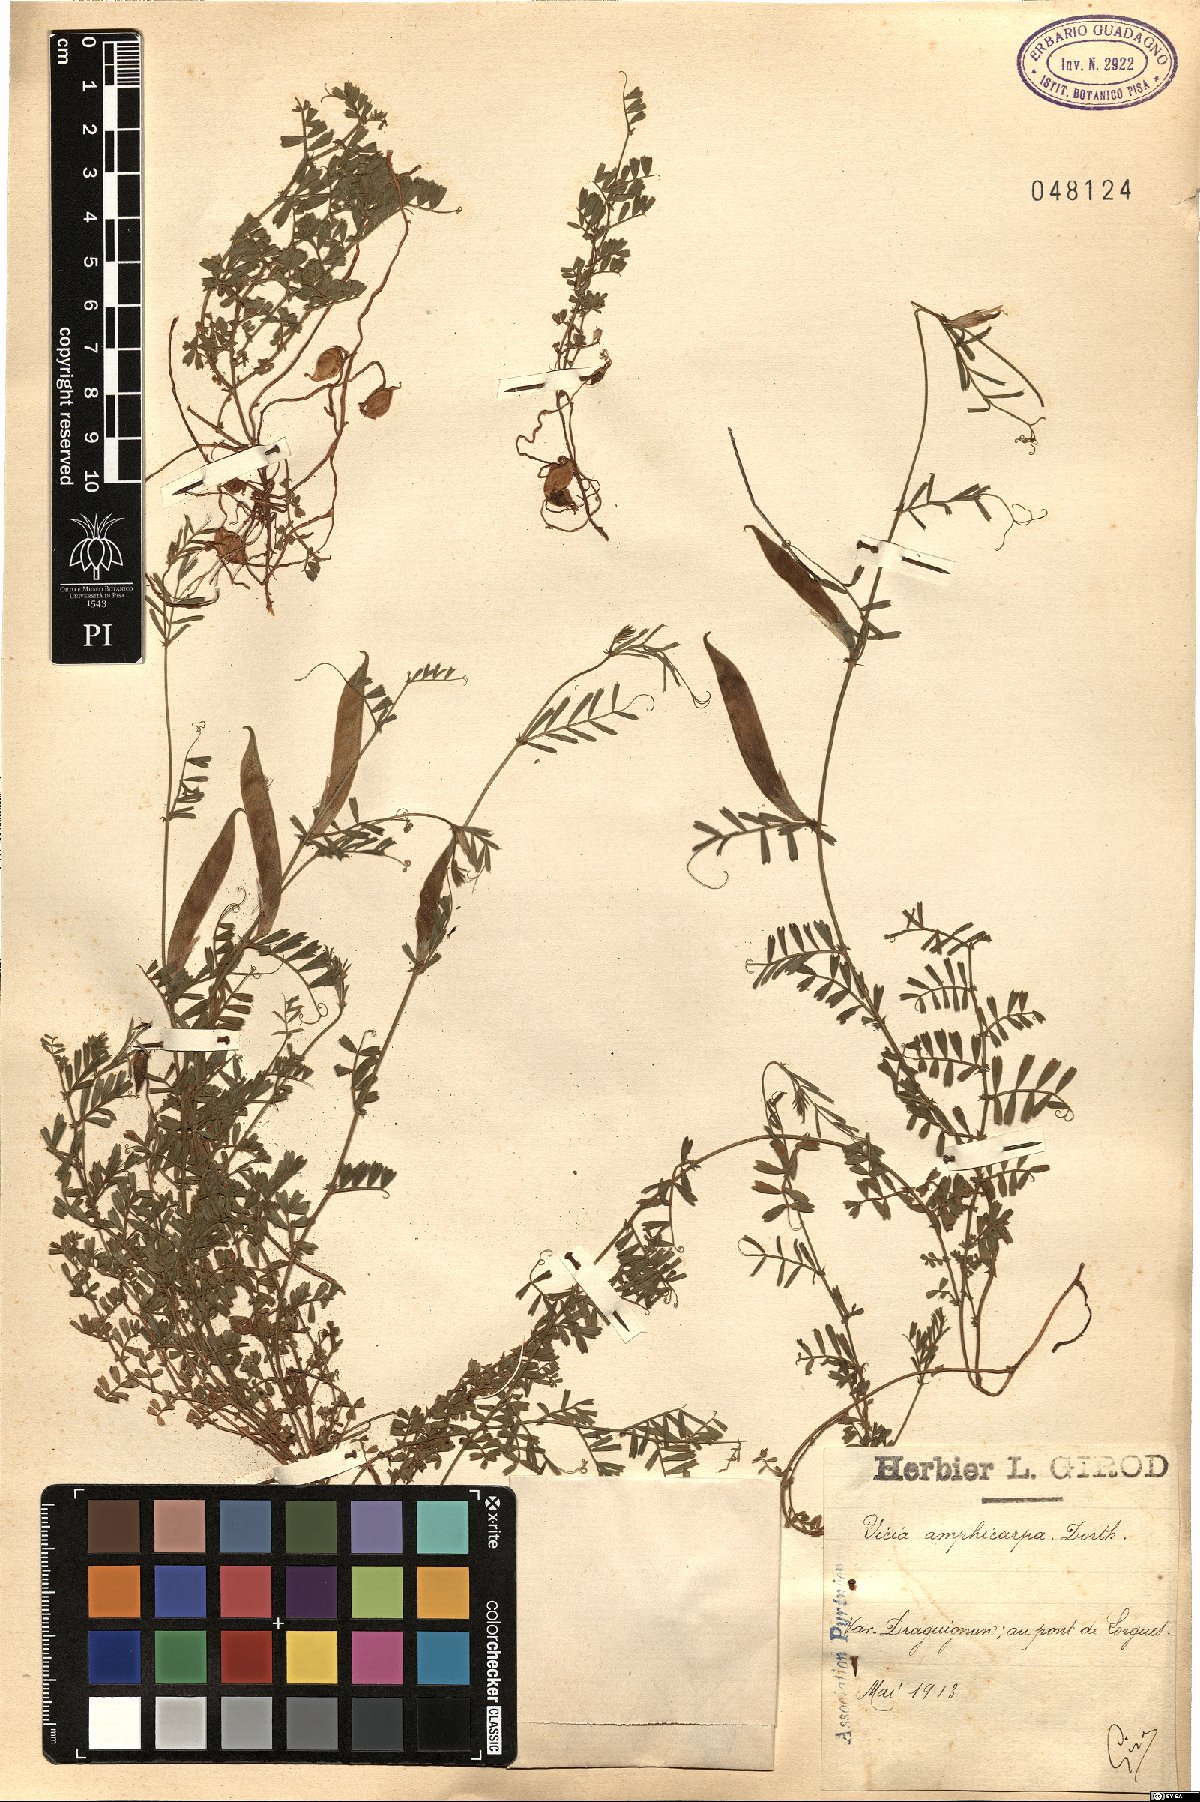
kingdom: Plantae
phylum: Tracheophyta
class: Magnoliopsida
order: Fabales
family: Fabaceae
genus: Vicia
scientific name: Vicia sativa
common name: Garden vetch
